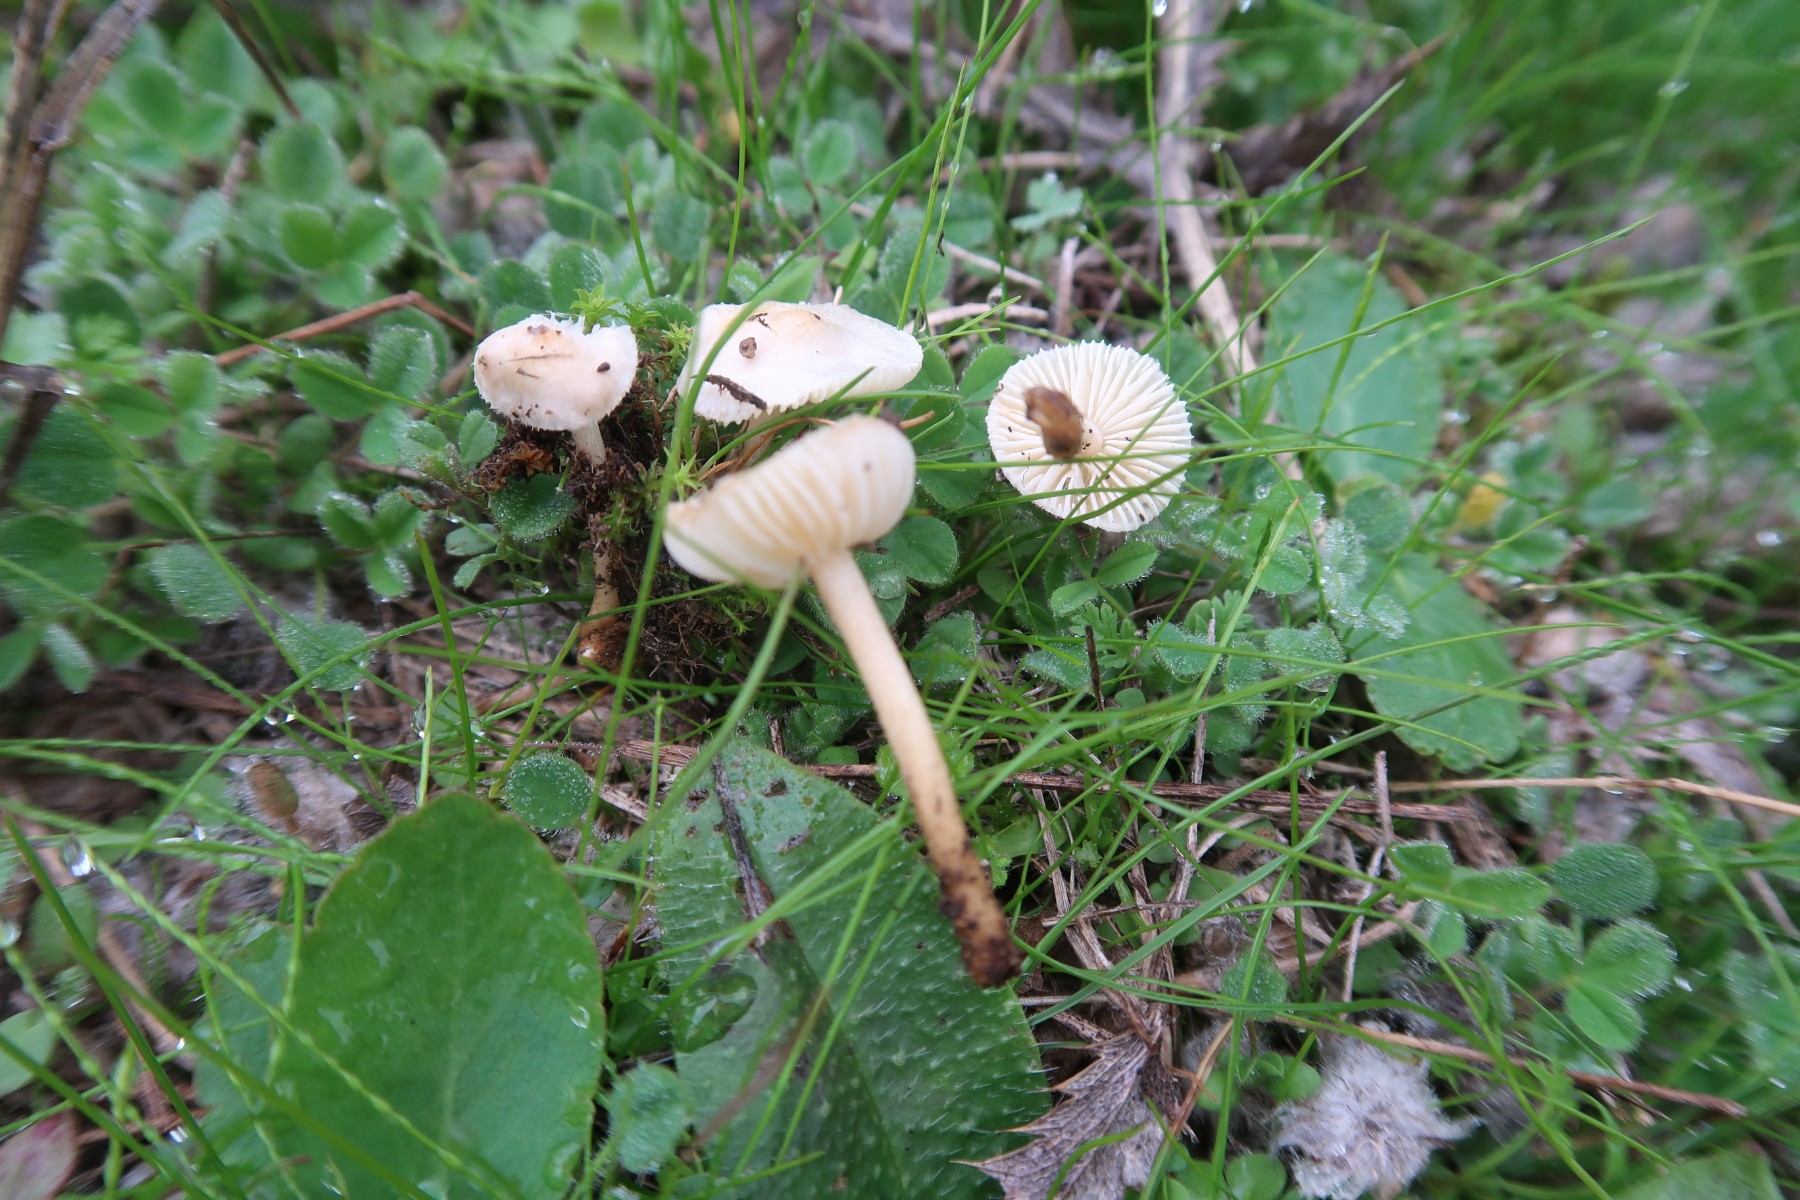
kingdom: Fungi
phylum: Basidiomycota
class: Agaricomycetes
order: Agaricales
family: Marasmiaceae
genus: Crinipellis
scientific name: Crinipellis pedemontana
